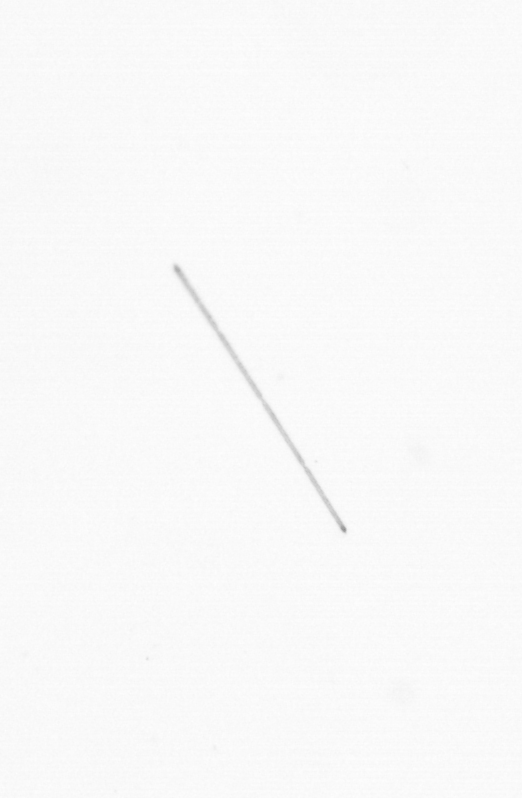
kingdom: Chromista
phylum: Ochrophyta
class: Bacillariophyceae
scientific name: Bacillariophyceae
